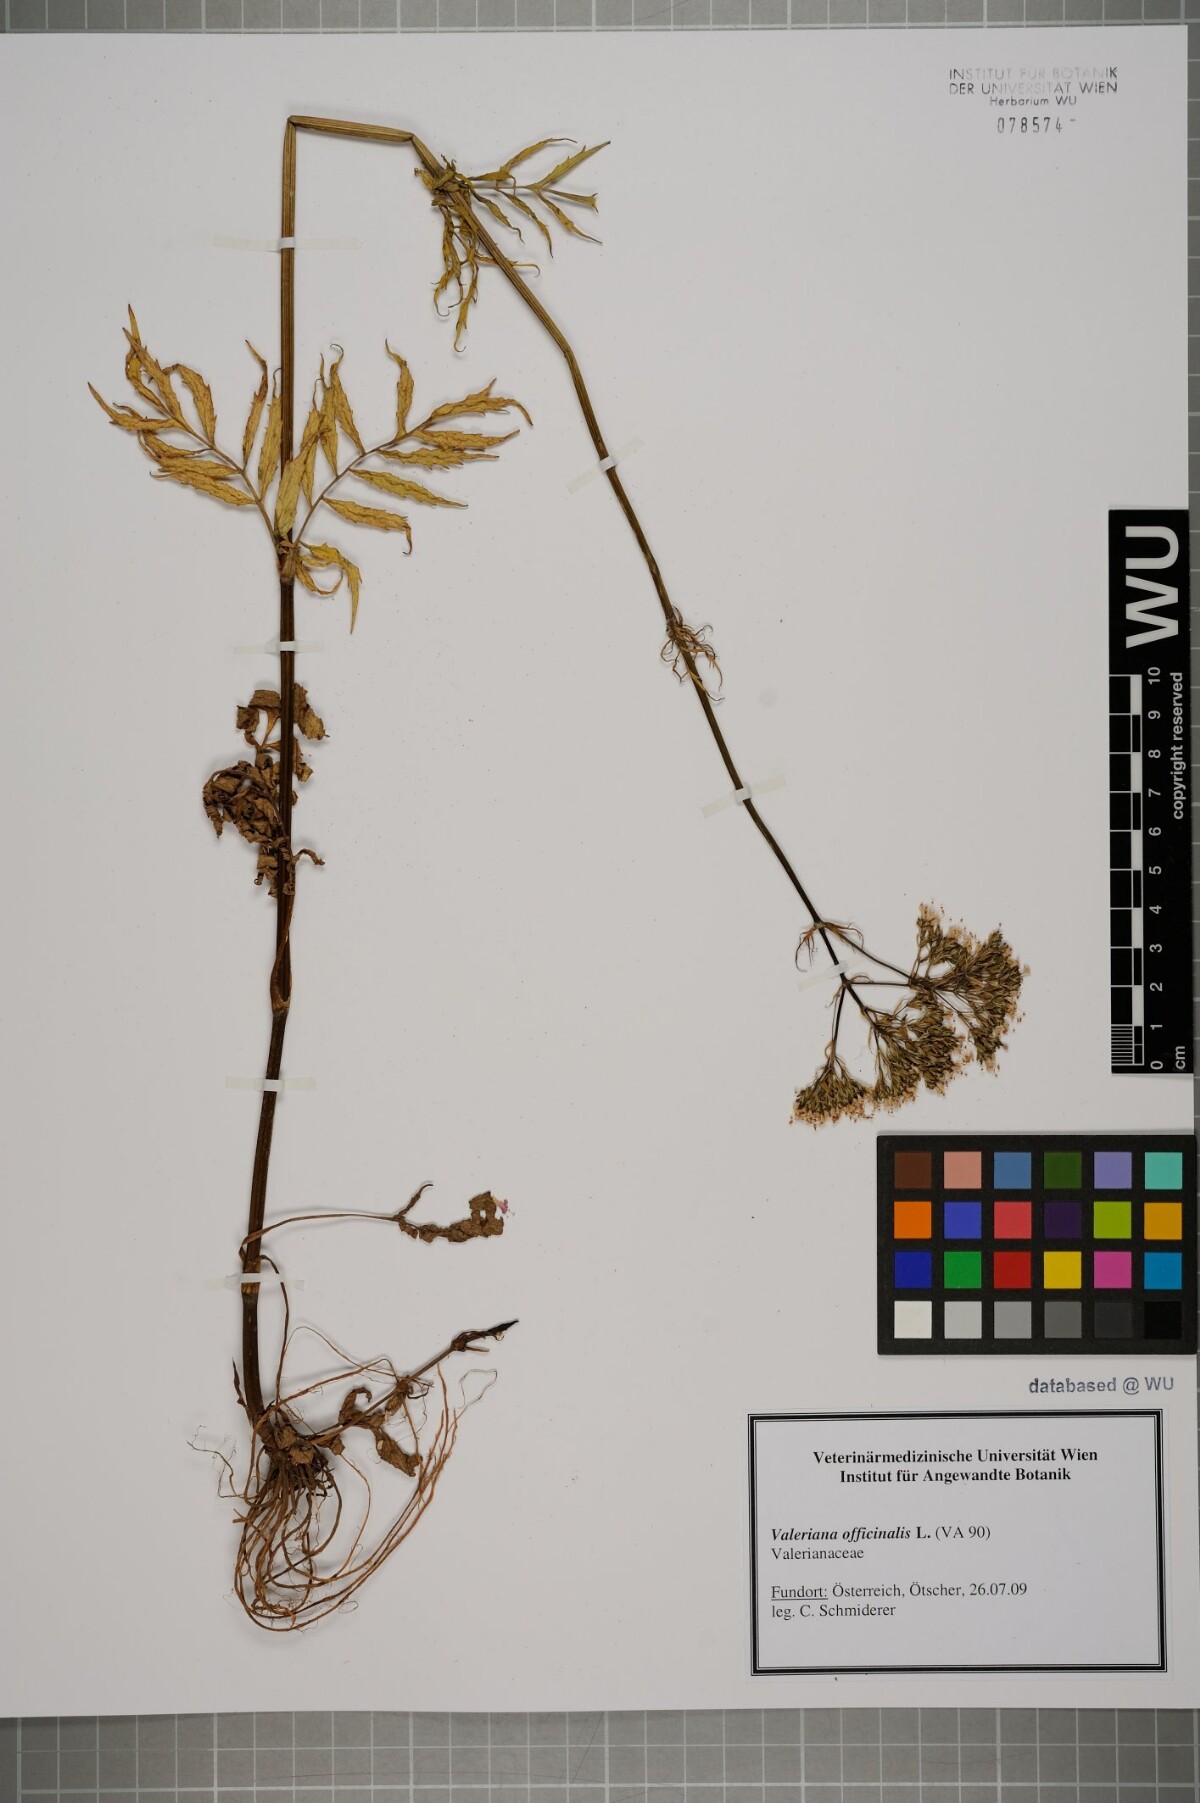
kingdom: Plantae
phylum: Tracheophyta
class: Magnoliopsida
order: Dipsacales
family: Caprifoliaceae
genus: Valeriana
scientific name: Valeriana officinalis
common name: Common valerian
